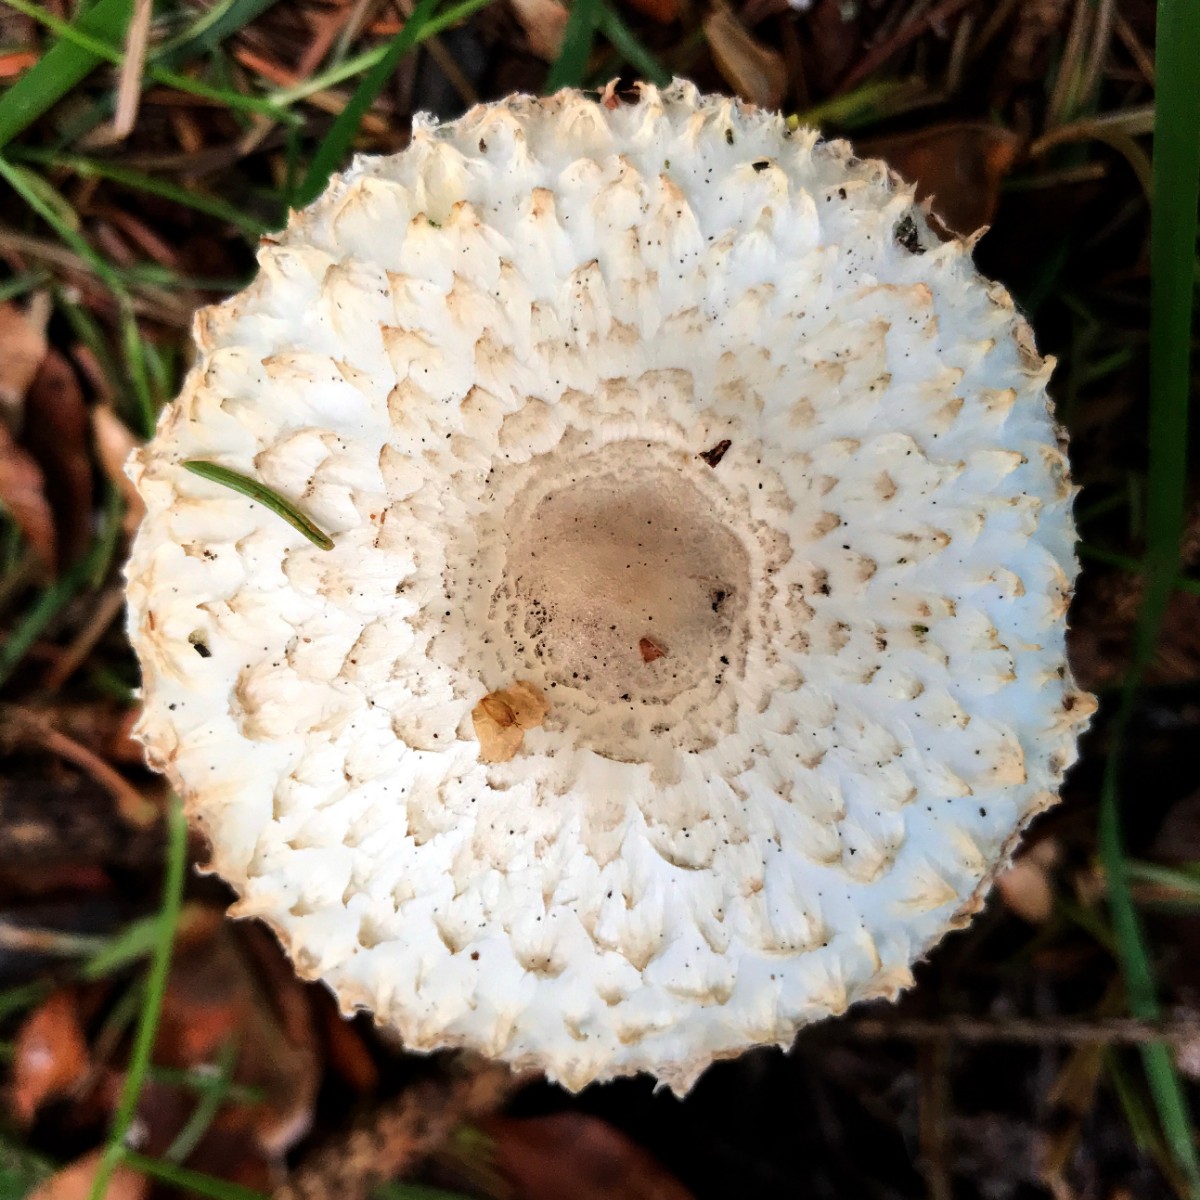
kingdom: Fungi
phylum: Basidiomycota
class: Agaricomycetes
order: Agaricales
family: Agaricaceae
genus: Leucoagaricus
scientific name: Leucoagaricus nympharum
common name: gran-silkehat
